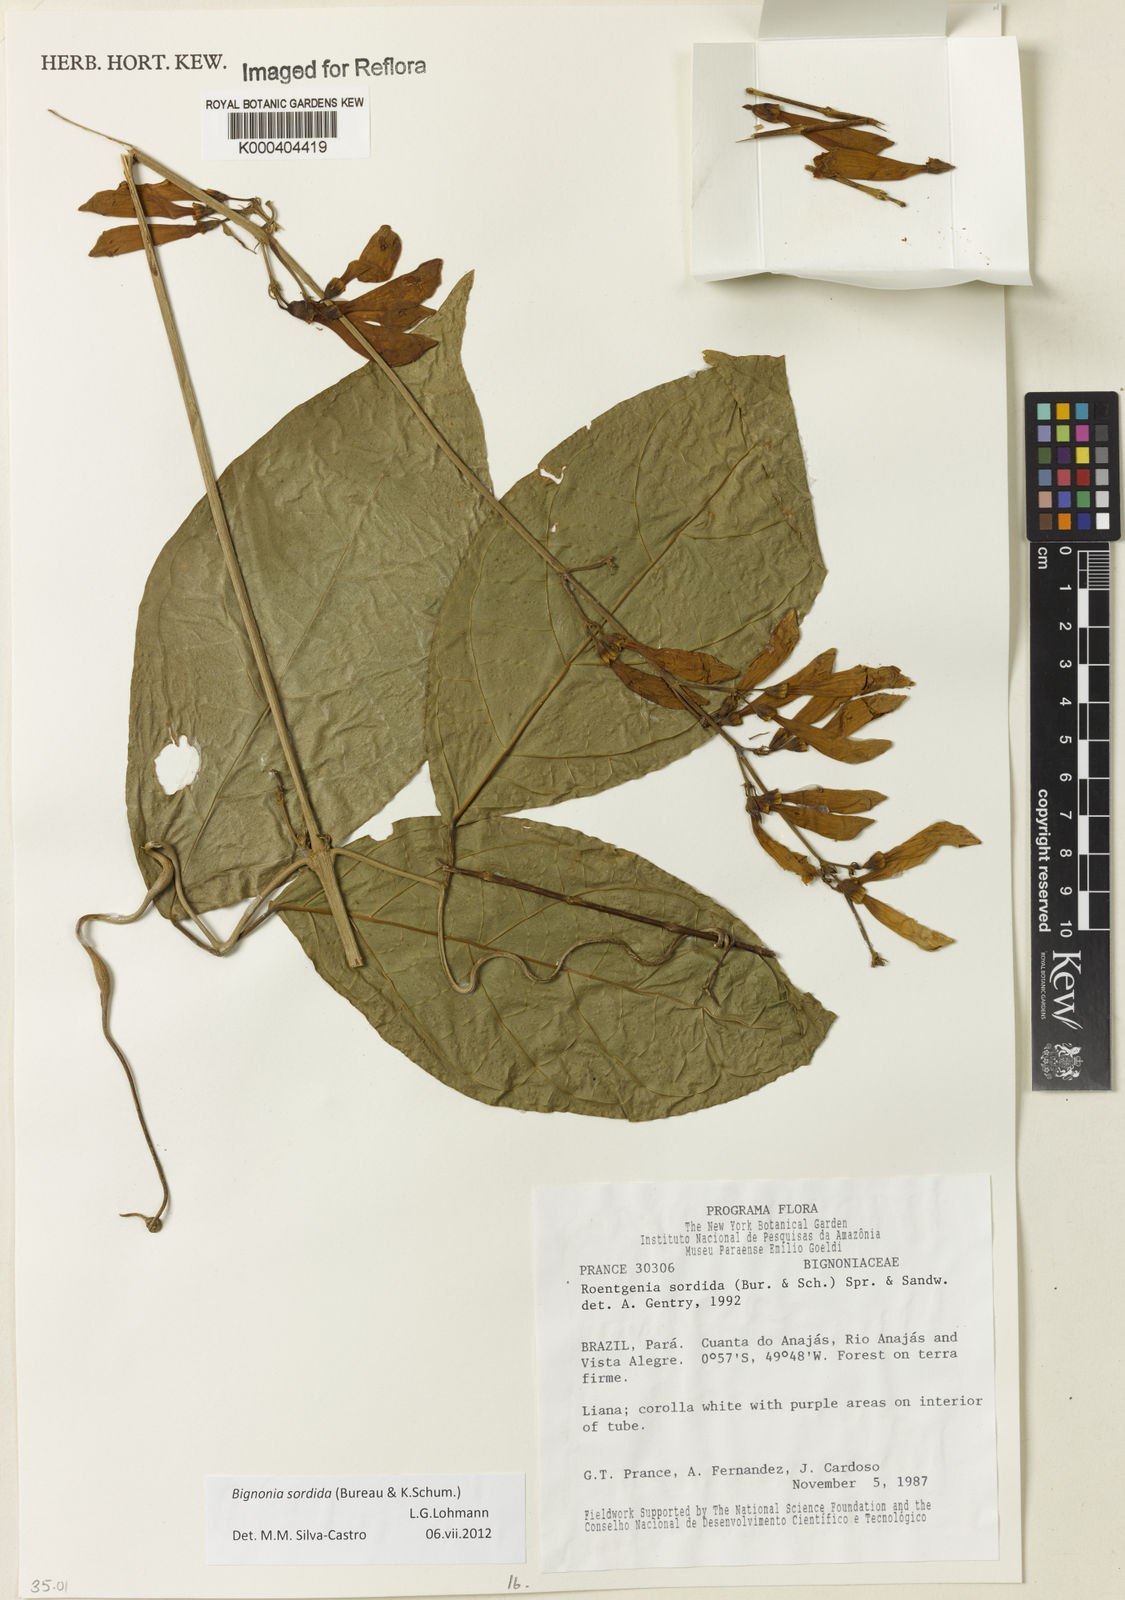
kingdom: Plantae
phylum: Tracheophyta
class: Magnoliopsida
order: Lamiales
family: Bignoniaceae
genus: Bignonia
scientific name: Bignonia sordida
